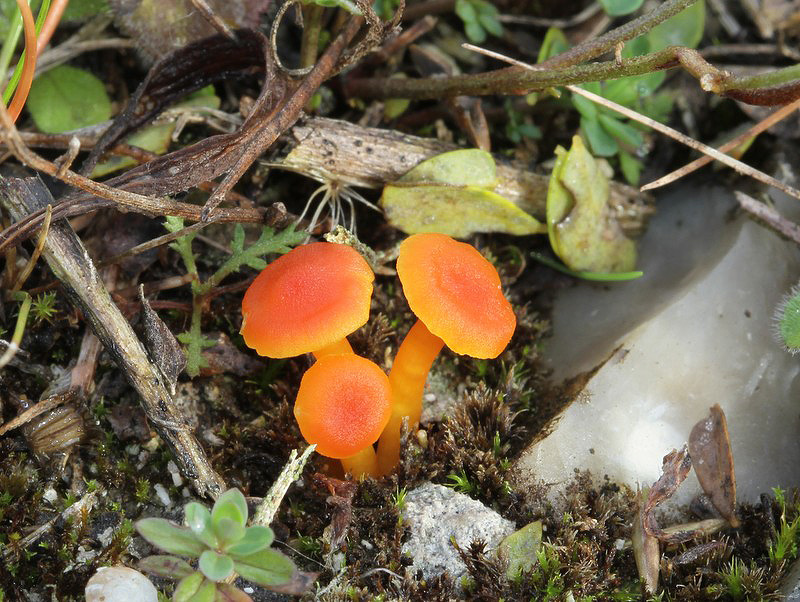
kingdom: Fungi
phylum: Basidiomycota
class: Agaricomycetes
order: Agaricales
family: Hygrophoraceae
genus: Hygrocybe
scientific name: Hygrocybe calciphila
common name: kalk-vokshat
